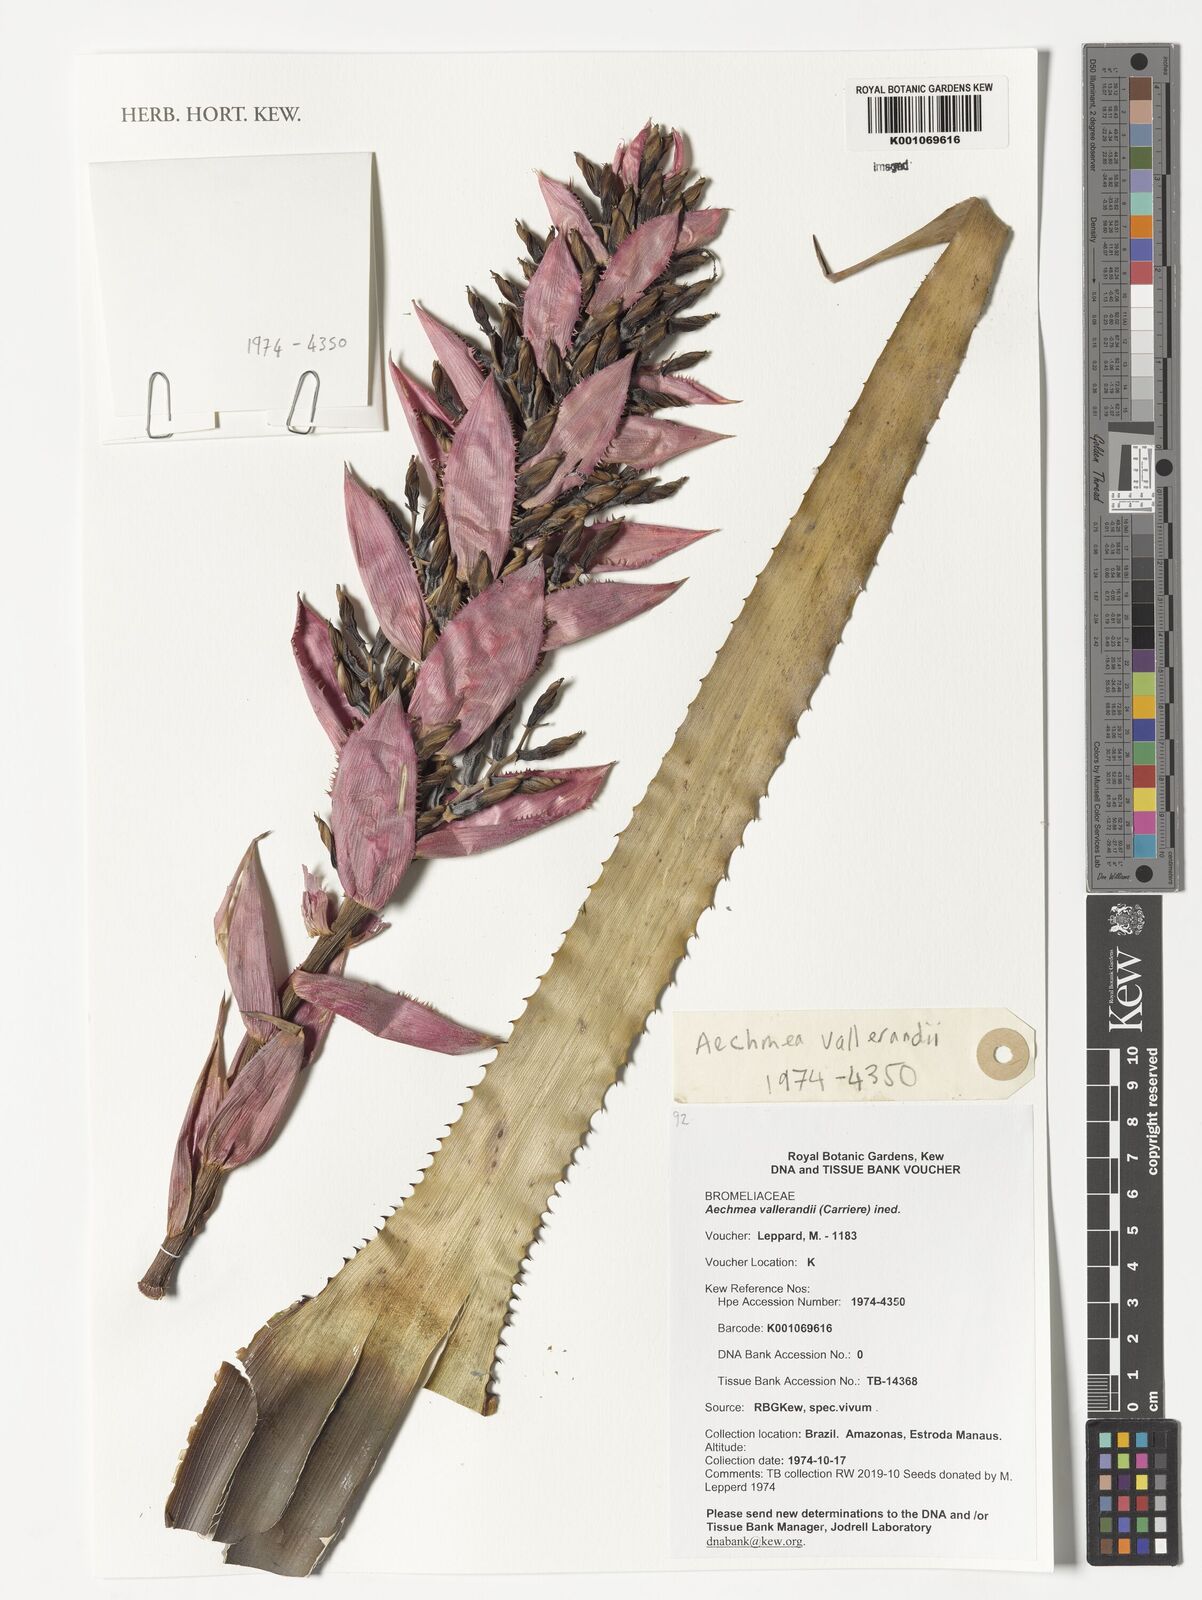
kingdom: Plantae
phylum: Tracheophyta
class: Liliopsida
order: Poales
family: Bromeliaceae
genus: Aechmea
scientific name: Aechmea vallerandii
